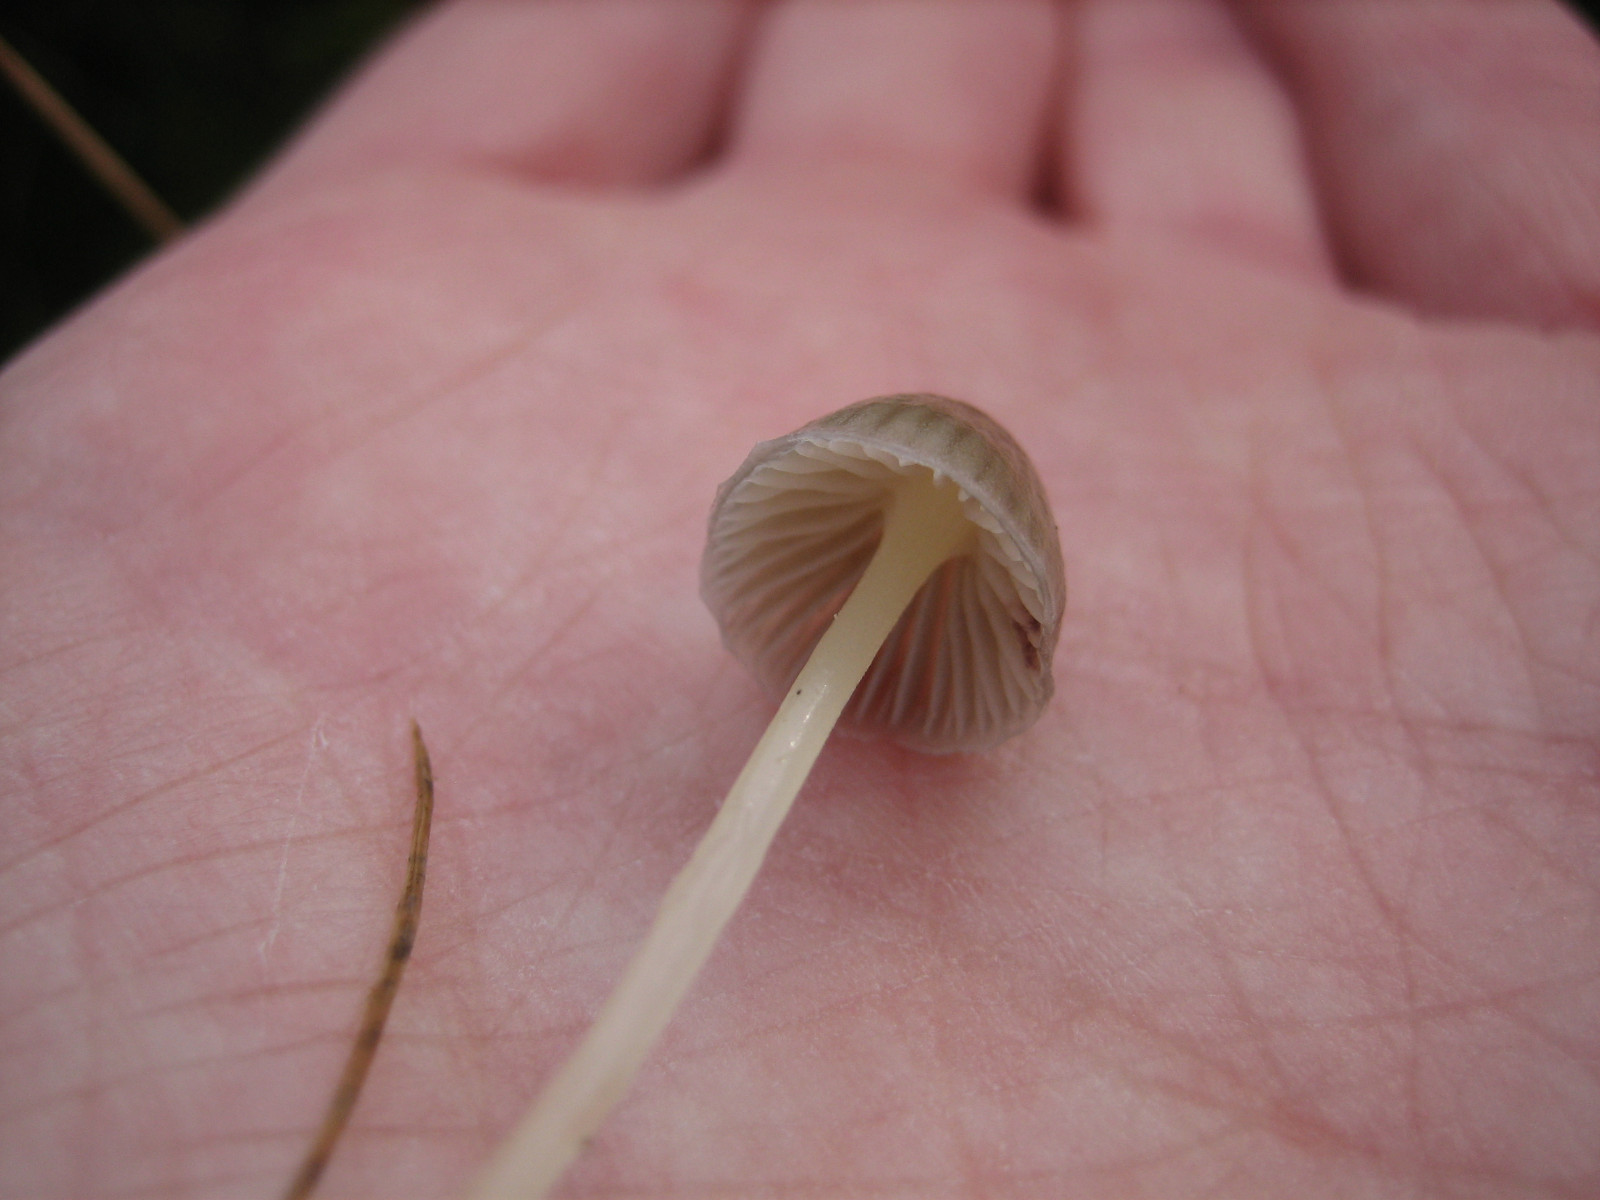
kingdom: Fungi
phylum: Basidiomycota
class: Agaricomycetes
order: Agaricales
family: Mycenaceae
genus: Mycena
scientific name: Mycena epipterygia
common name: gulstokket huesvamp
